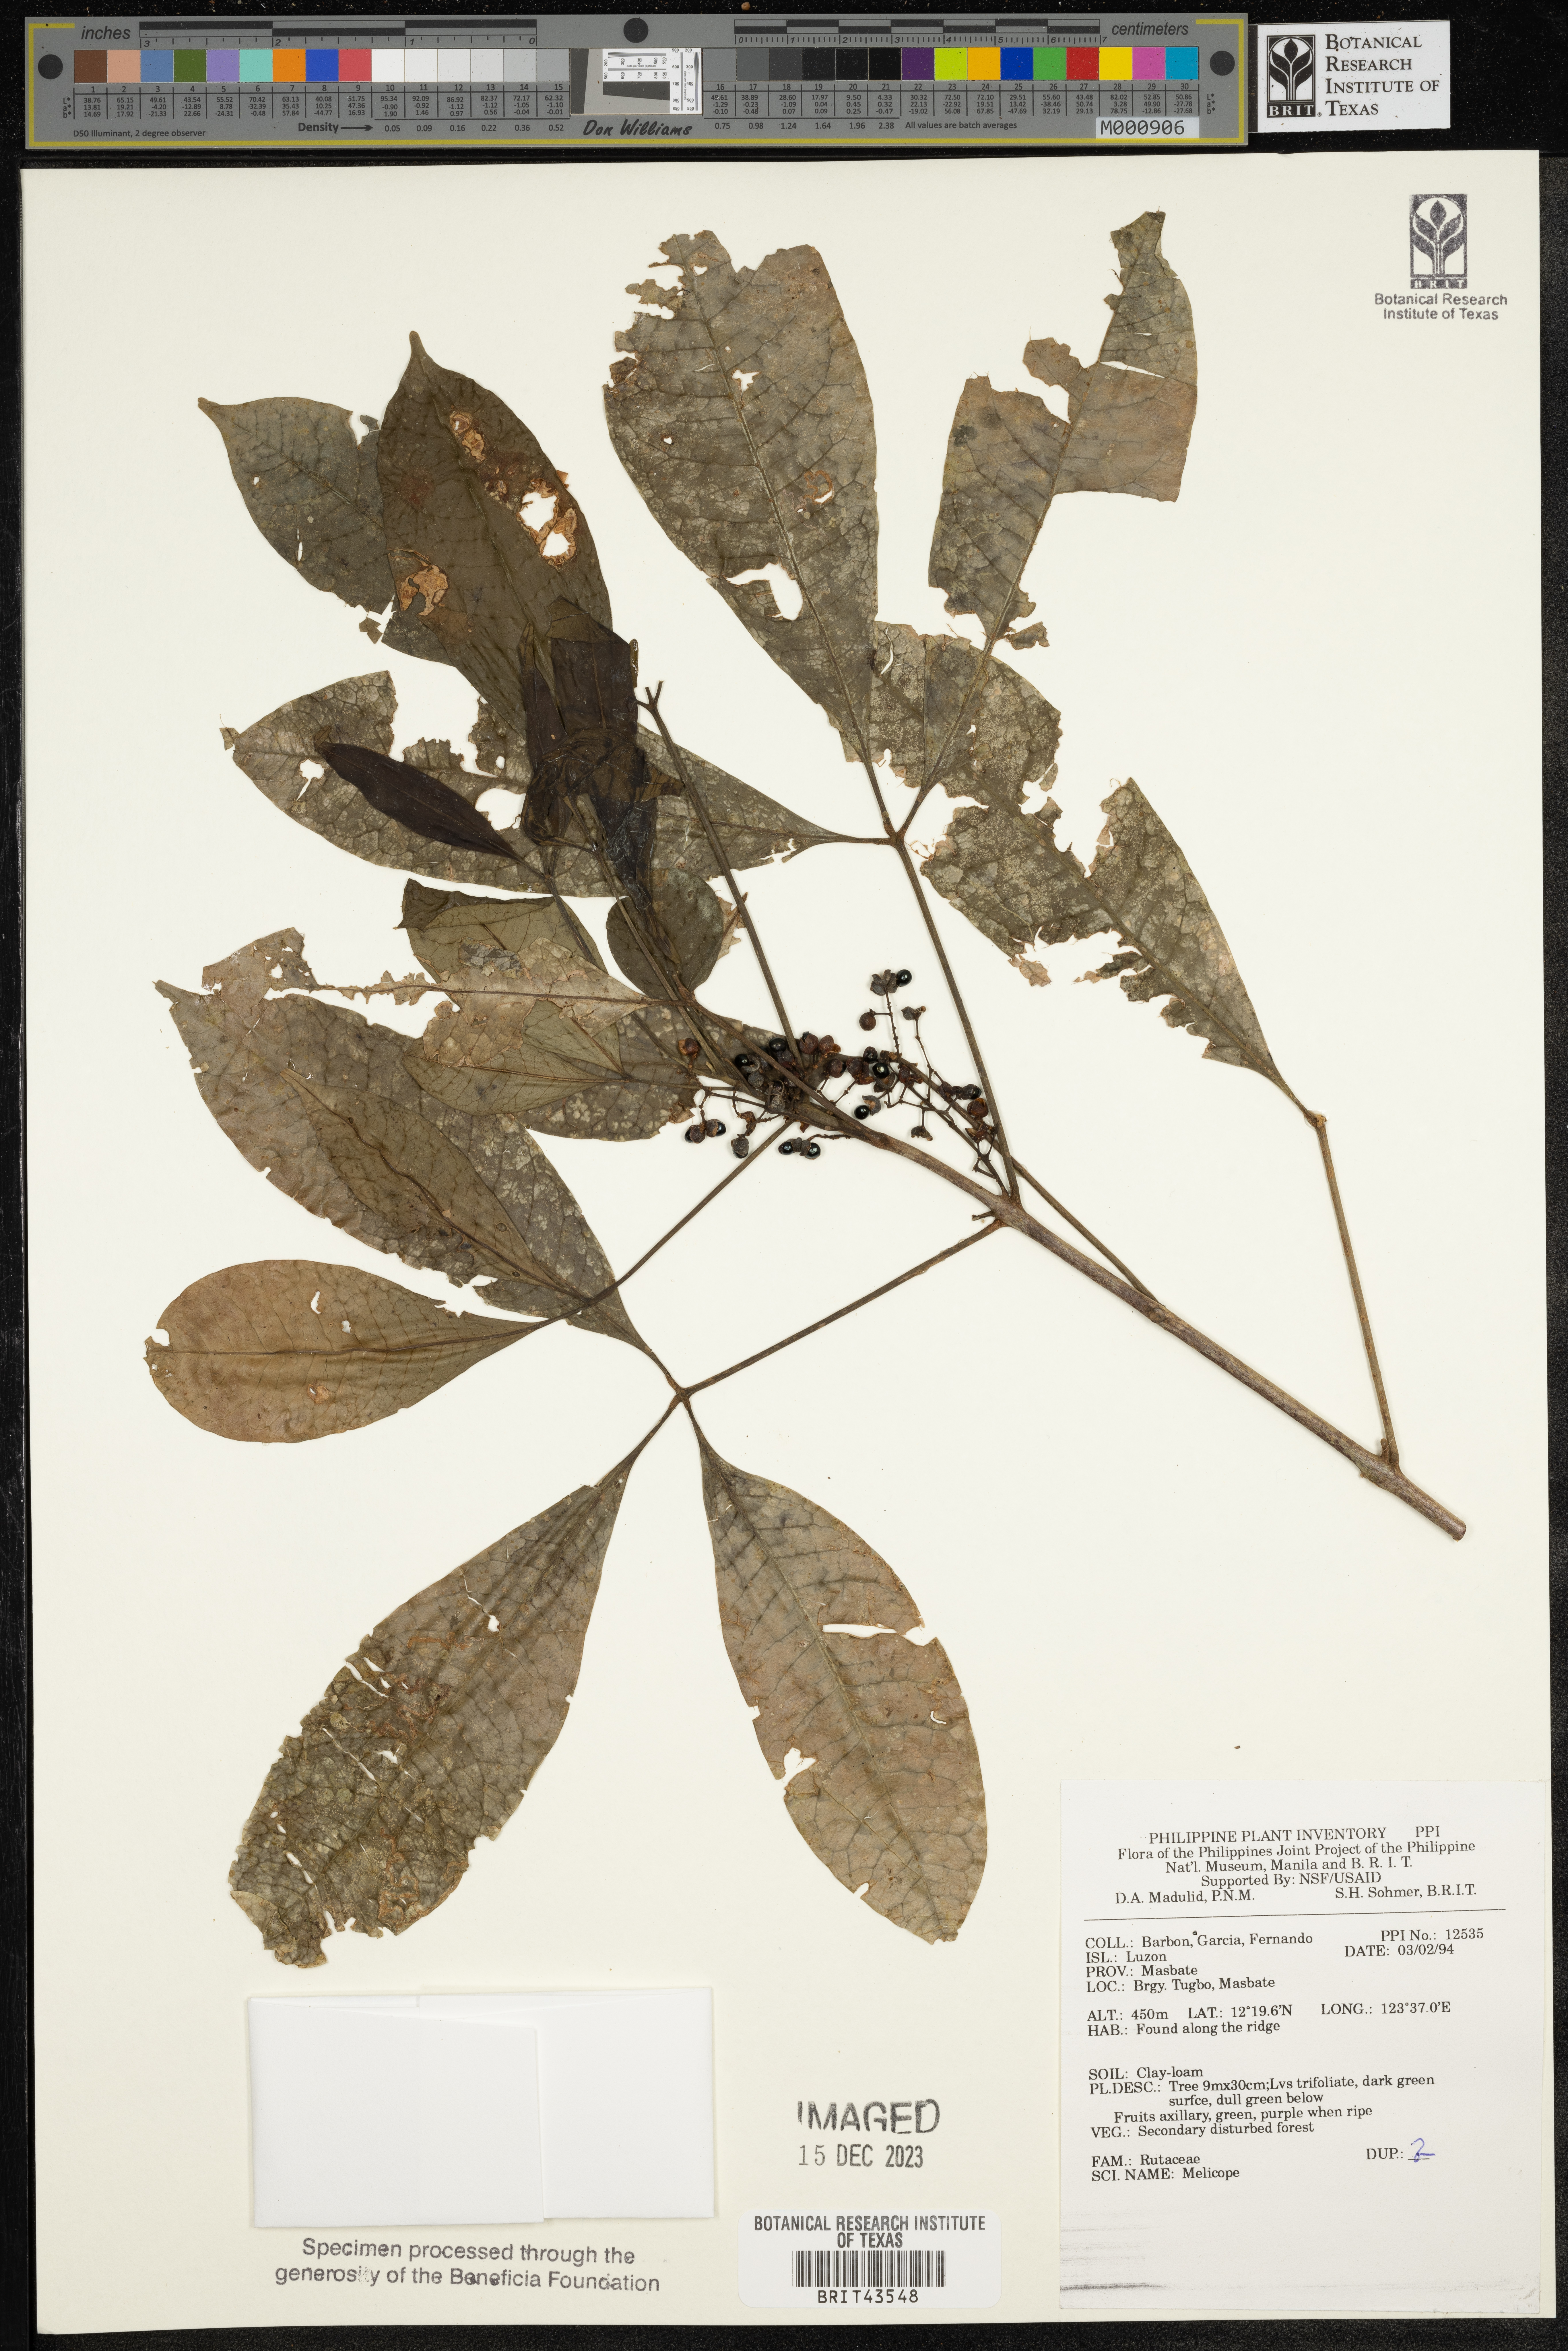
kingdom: Plantae
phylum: Tracheophyta
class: Magnoliopsida
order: Sapindales
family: Rutaceae
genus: Melicope
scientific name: Melicope
